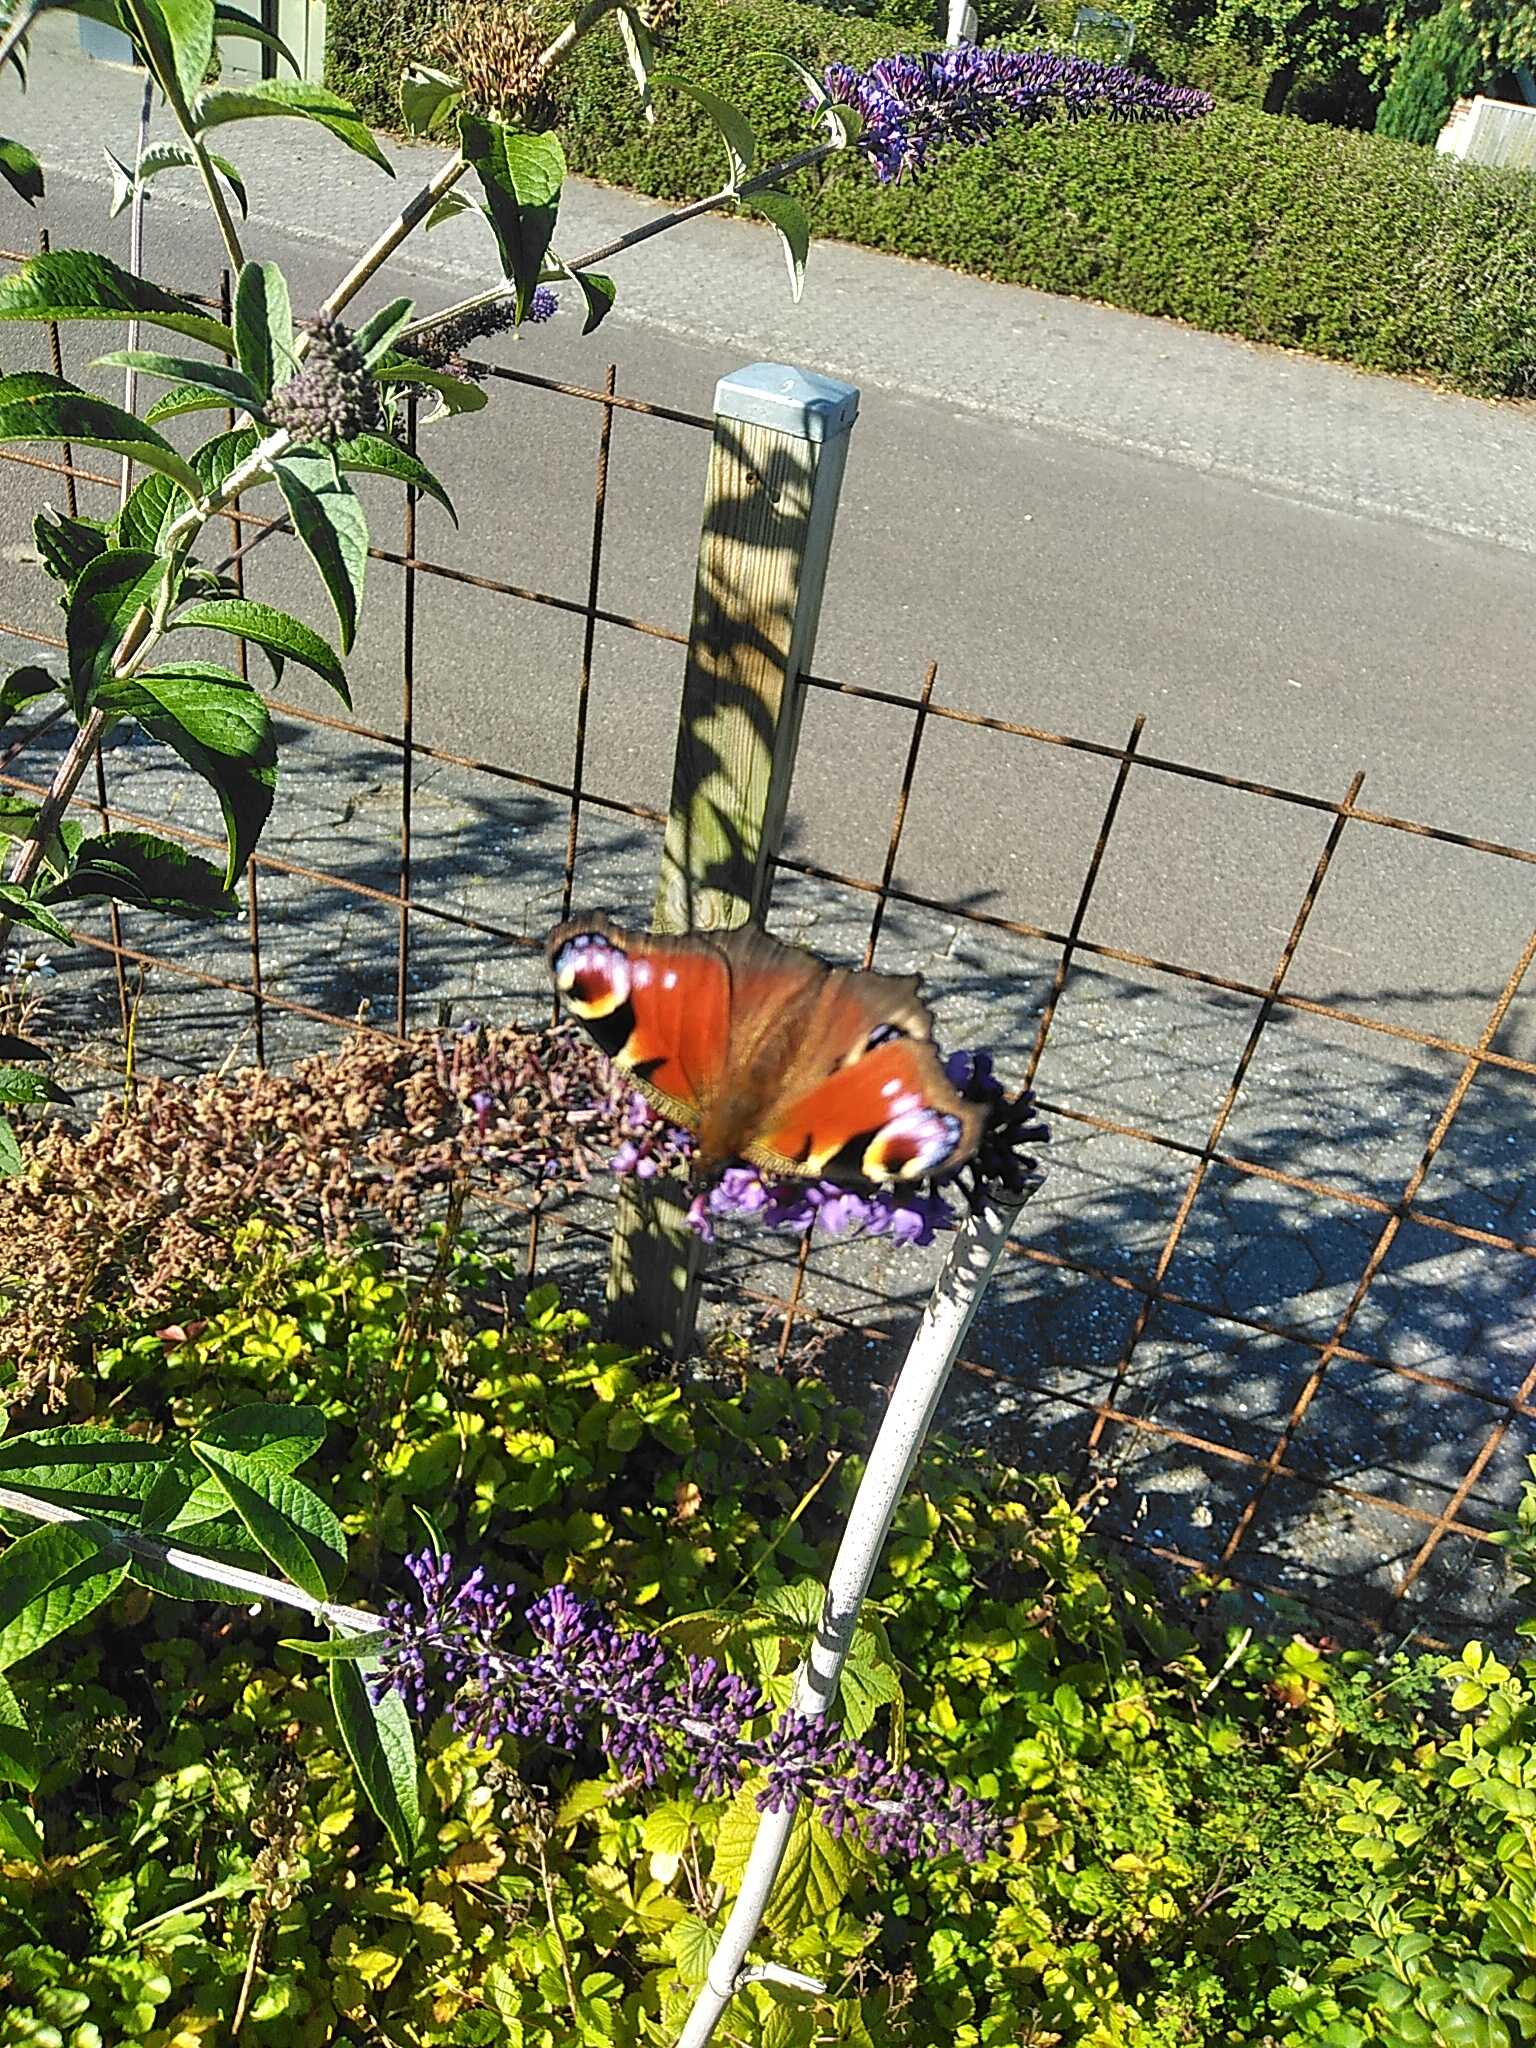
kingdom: Animalia
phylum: Arthropoda
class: Insecta
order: Lepidoptera
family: Nymphalidae
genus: Aglais
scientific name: Aglais io
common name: Dagpåfugleøje
